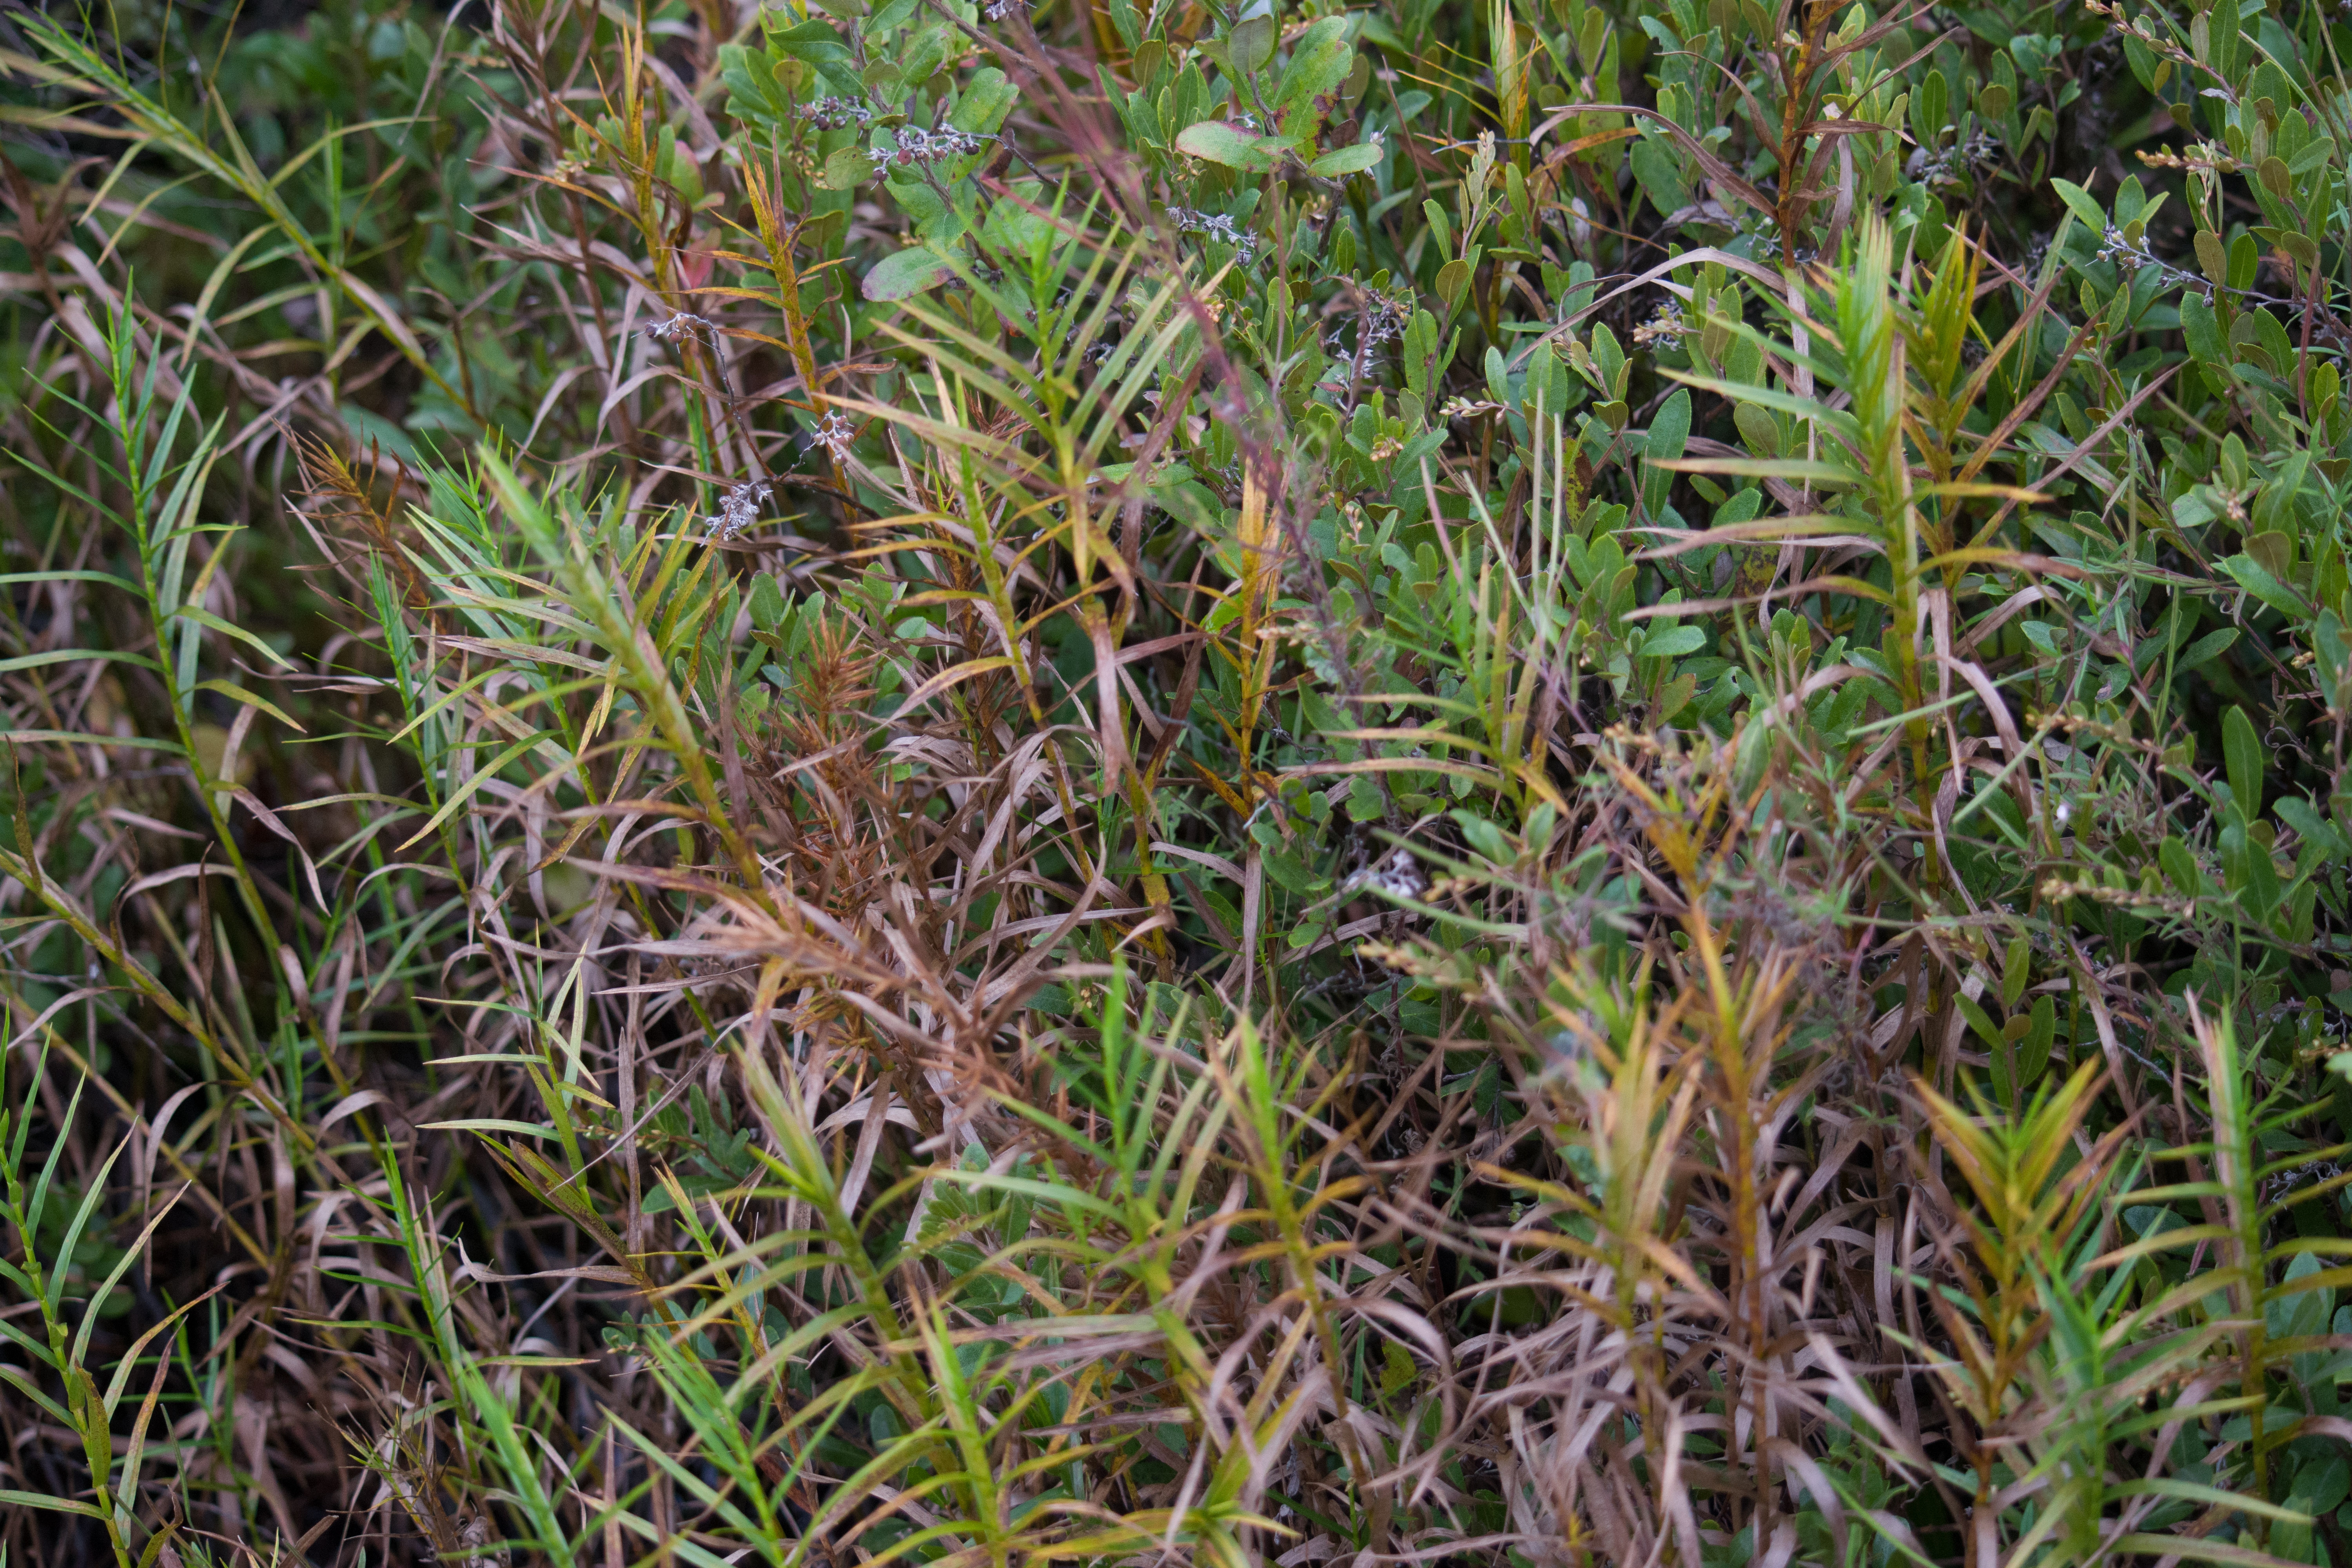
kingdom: Plantae
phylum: Tracheophyta
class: Liliopsida
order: Poales
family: Cyperaceae
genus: Dulichium
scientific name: Dulichium arundinaceum
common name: Three-way sedge
